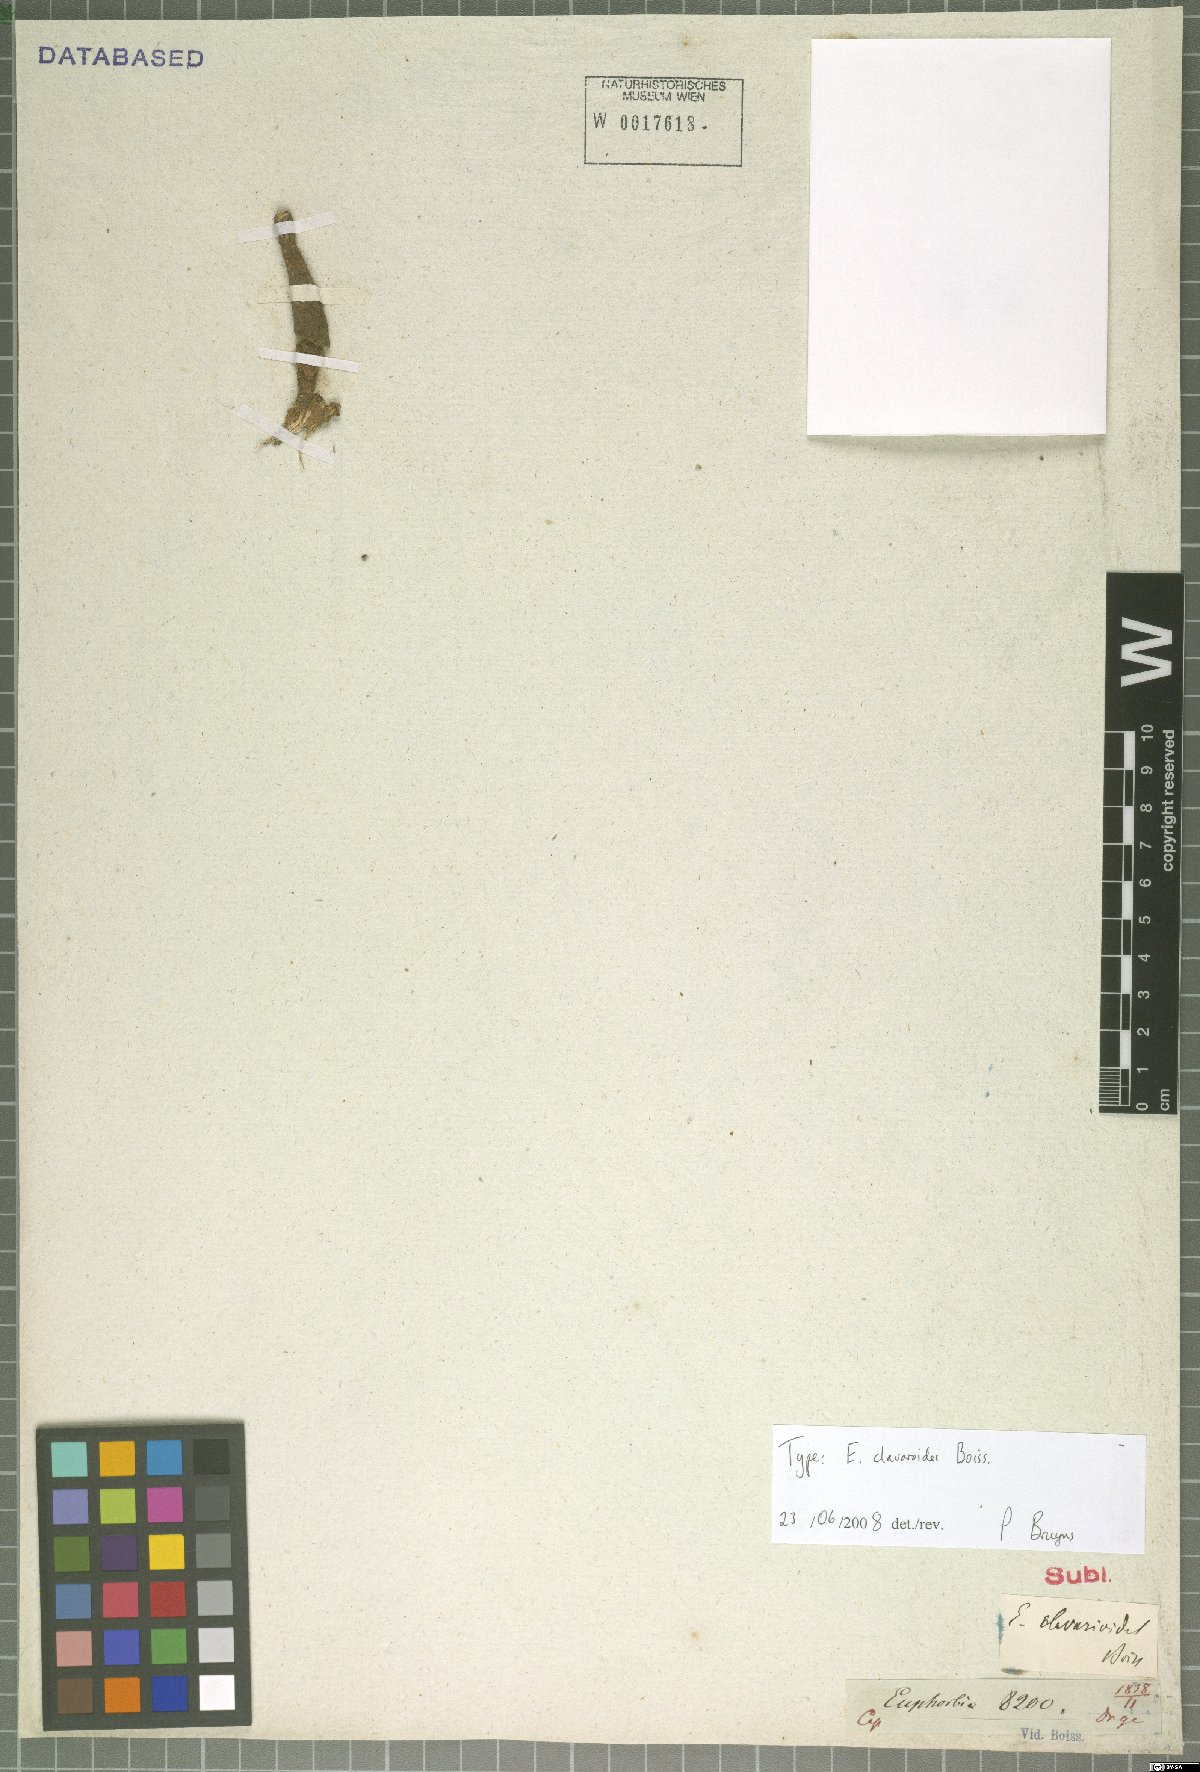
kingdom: Plantae
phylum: Tracheophyta
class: Magnoliopsida
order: Malpighiales
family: Euphorbiaceae
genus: Euphorbia
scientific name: Euphorbia clavarioides
